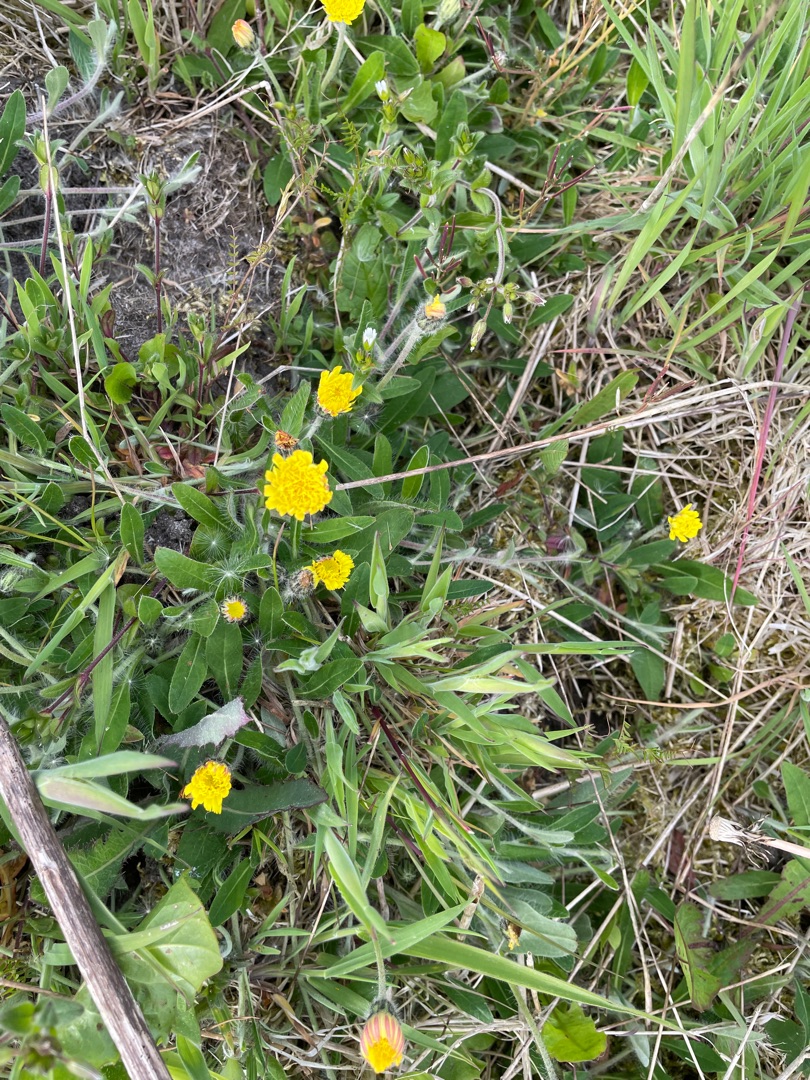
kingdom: Plantae
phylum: Tracheophyta
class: Magnoliopsida
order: Asterales
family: Asteraceae
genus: Pilosella
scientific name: Pilosella officinarum
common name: Håret høgeurt
